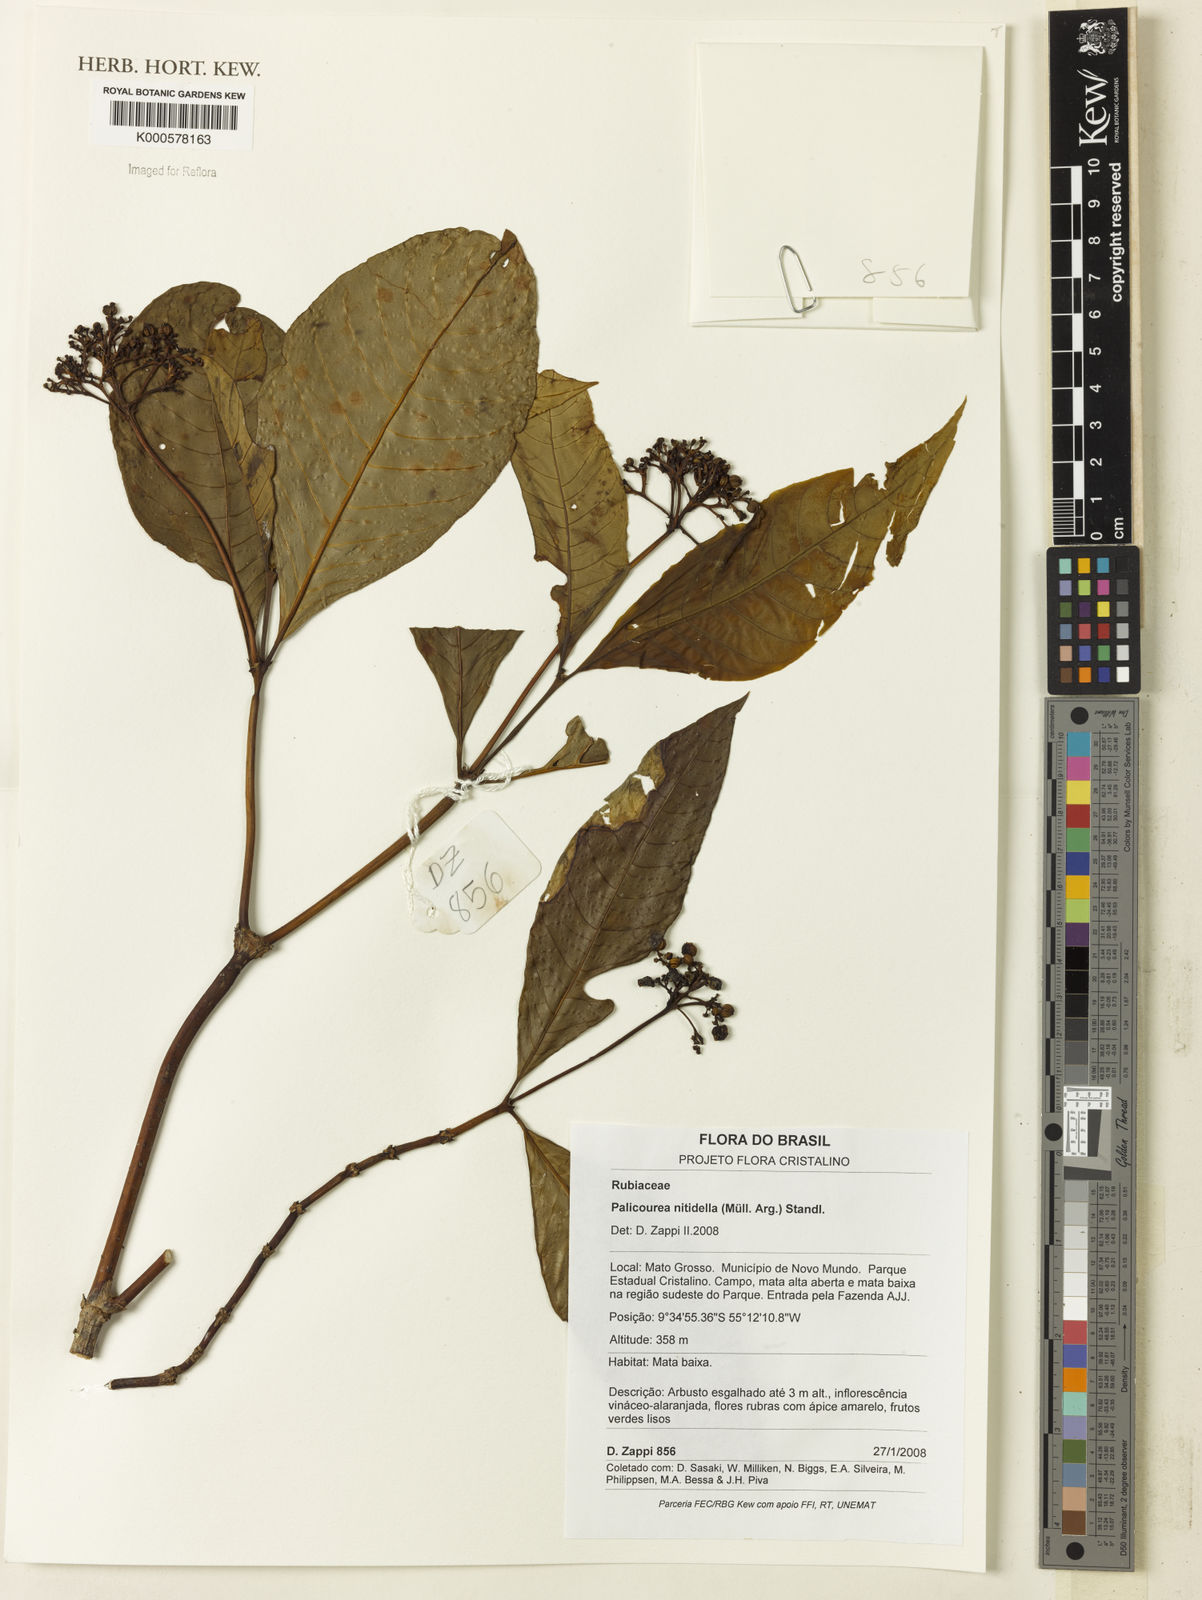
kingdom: Plantae
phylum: Tracheophyta
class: Magnoliopsida
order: Gentianales
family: Rubiaceae
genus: Palicourea
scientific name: Palicourea
